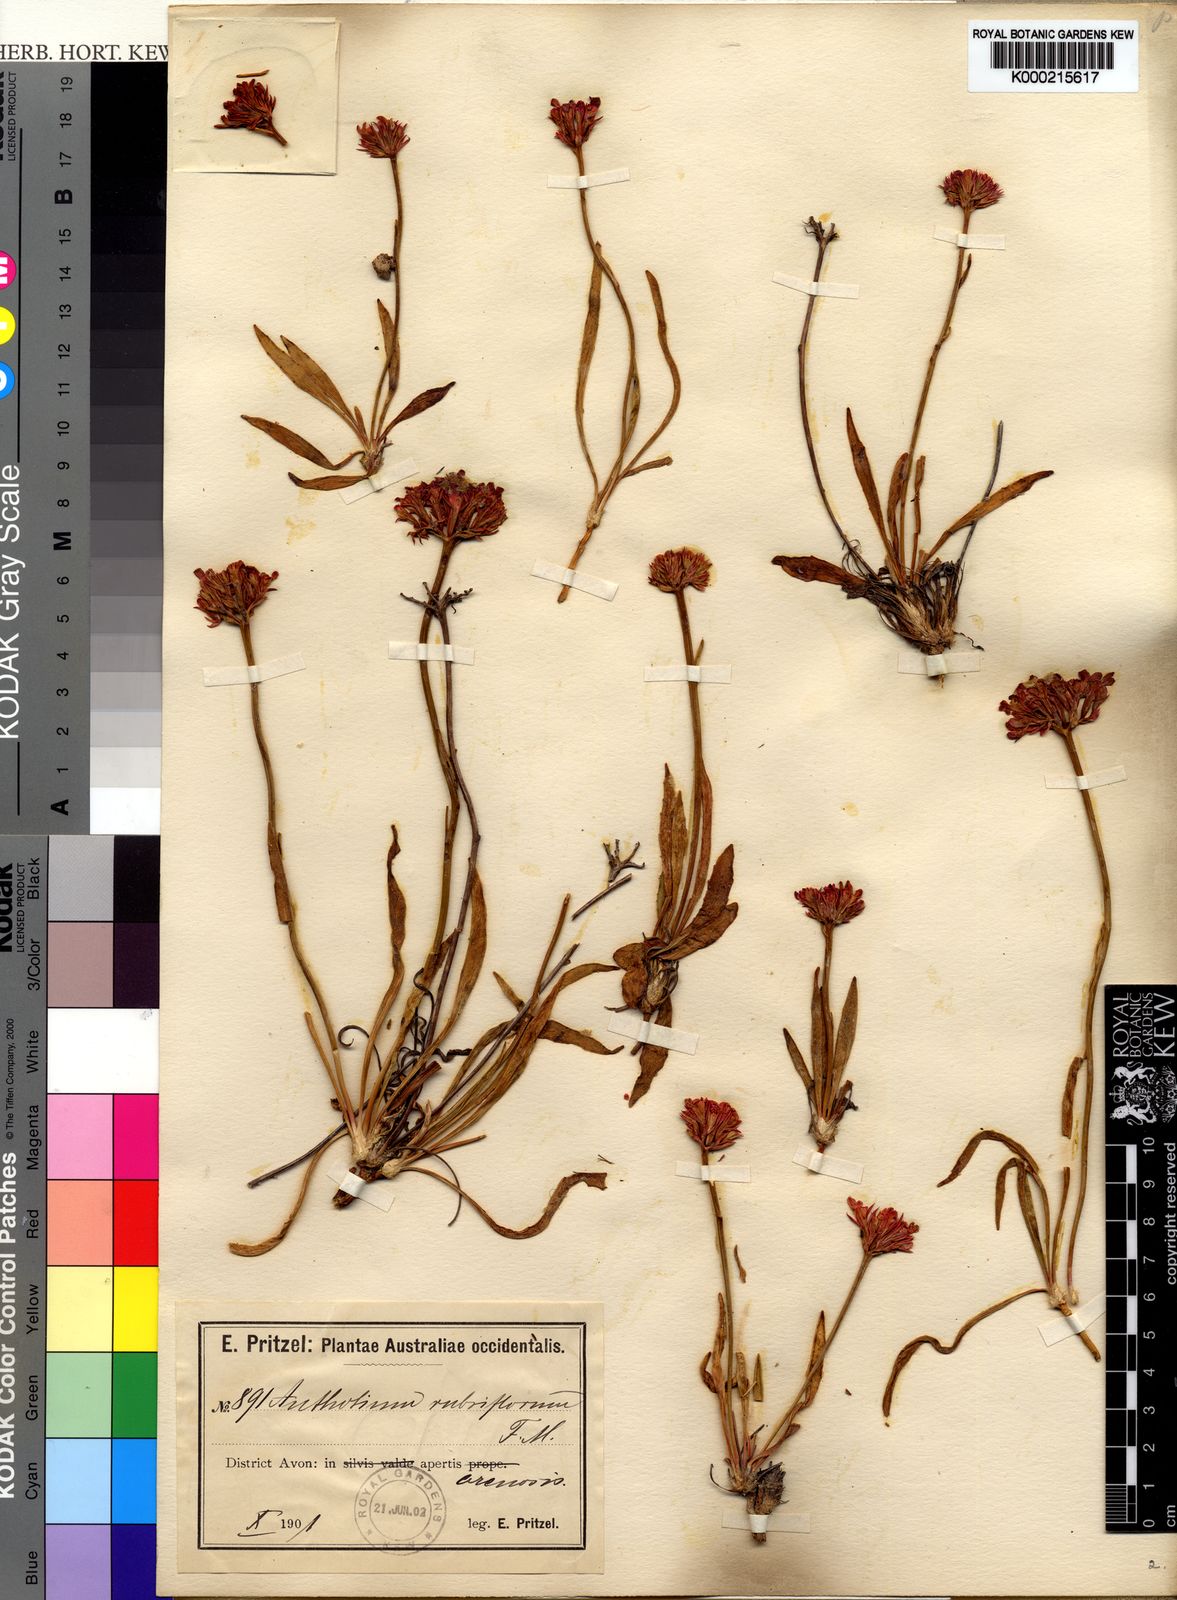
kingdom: Plantae
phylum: Tracheophyta
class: Magnoliopsida
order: Asterales
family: Goodeniaceae
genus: Anthotium
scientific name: Anthotium rubriflorum
